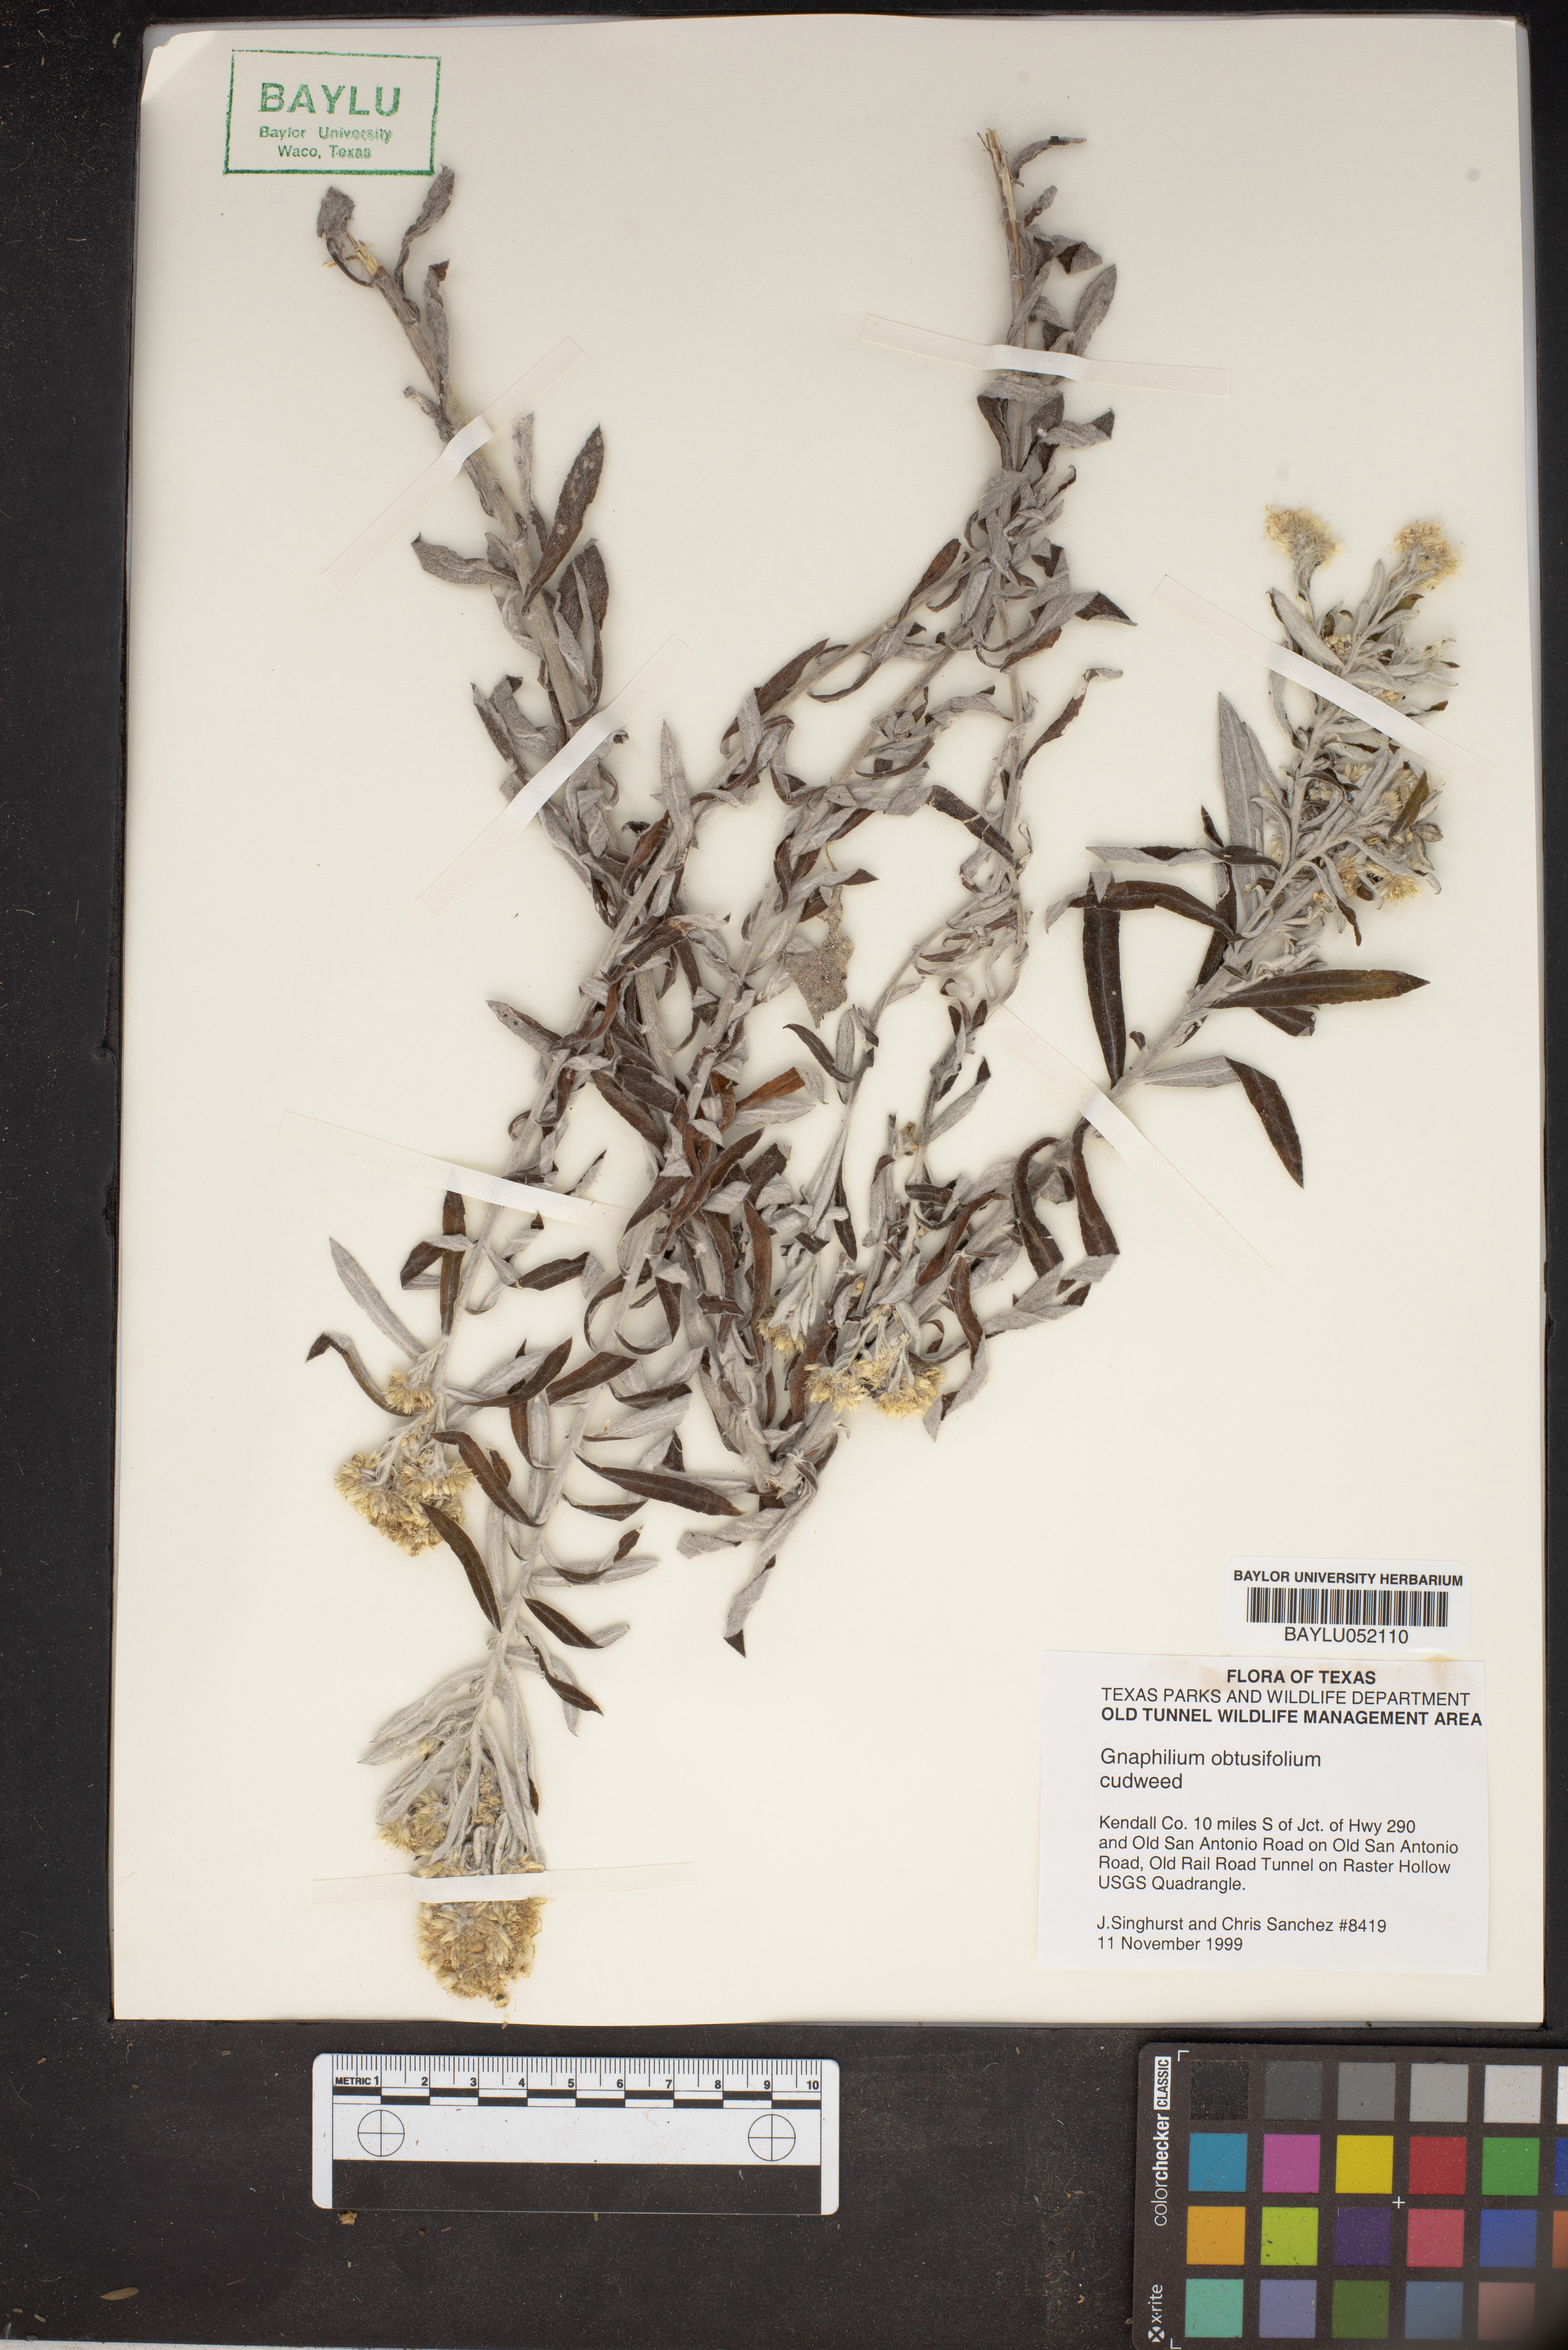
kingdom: Plantae
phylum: Tracheophyta
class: Magnoliopsida
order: Asterales
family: Asteraceae
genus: Pseudognaphalium
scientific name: Pseudognaphalium obtusifolium
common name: Eastern rabbit-tobacco
